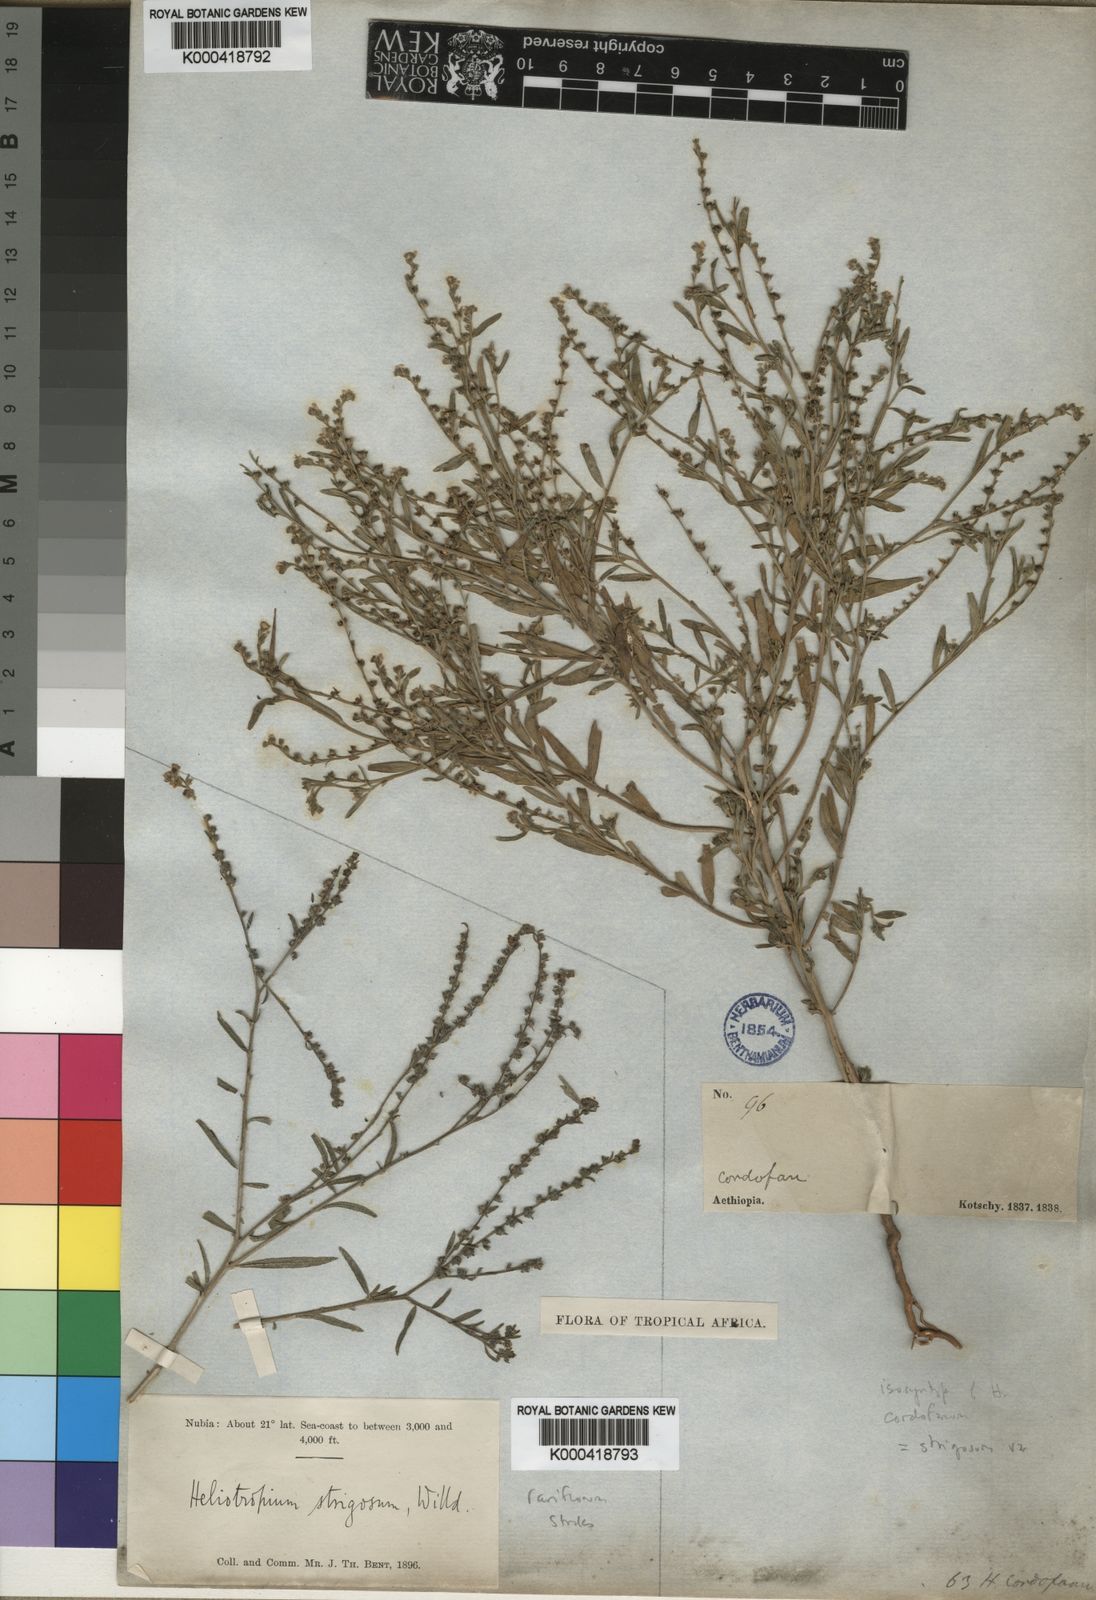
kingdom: Plantae
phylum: Tracheophyta
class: Magnoliopsida
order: Boraginales
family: Heliotropiaceae
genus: Euploca
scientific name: Euploca strigosa
